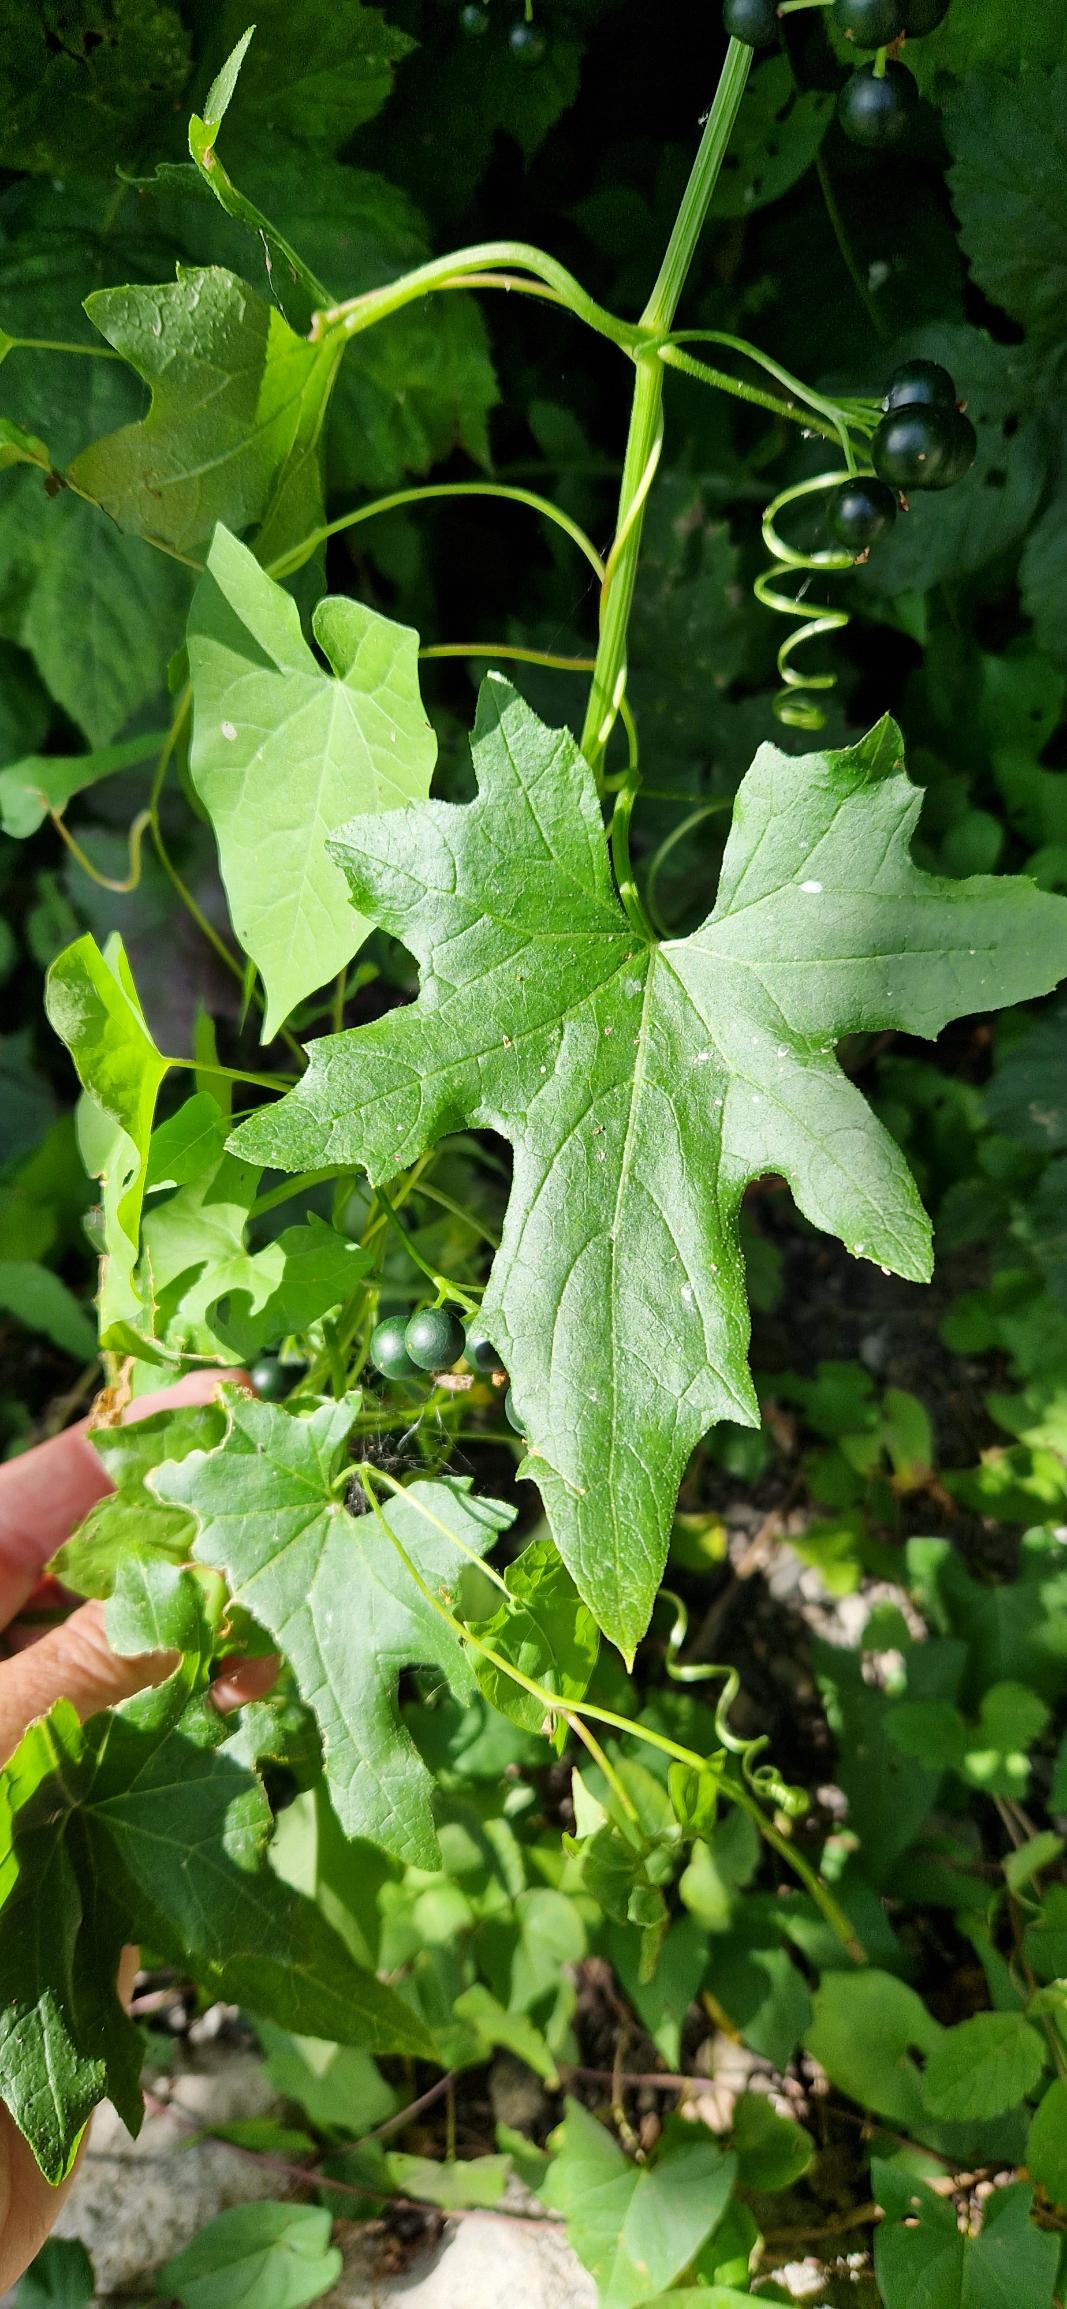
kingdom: Plantae
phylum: Tracheophyta
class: Magnoliopsida
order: Cucurbitales
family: Cucurbitaceae
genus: Bryonia
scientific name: Bryonia alba
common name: Enbo galdebær
